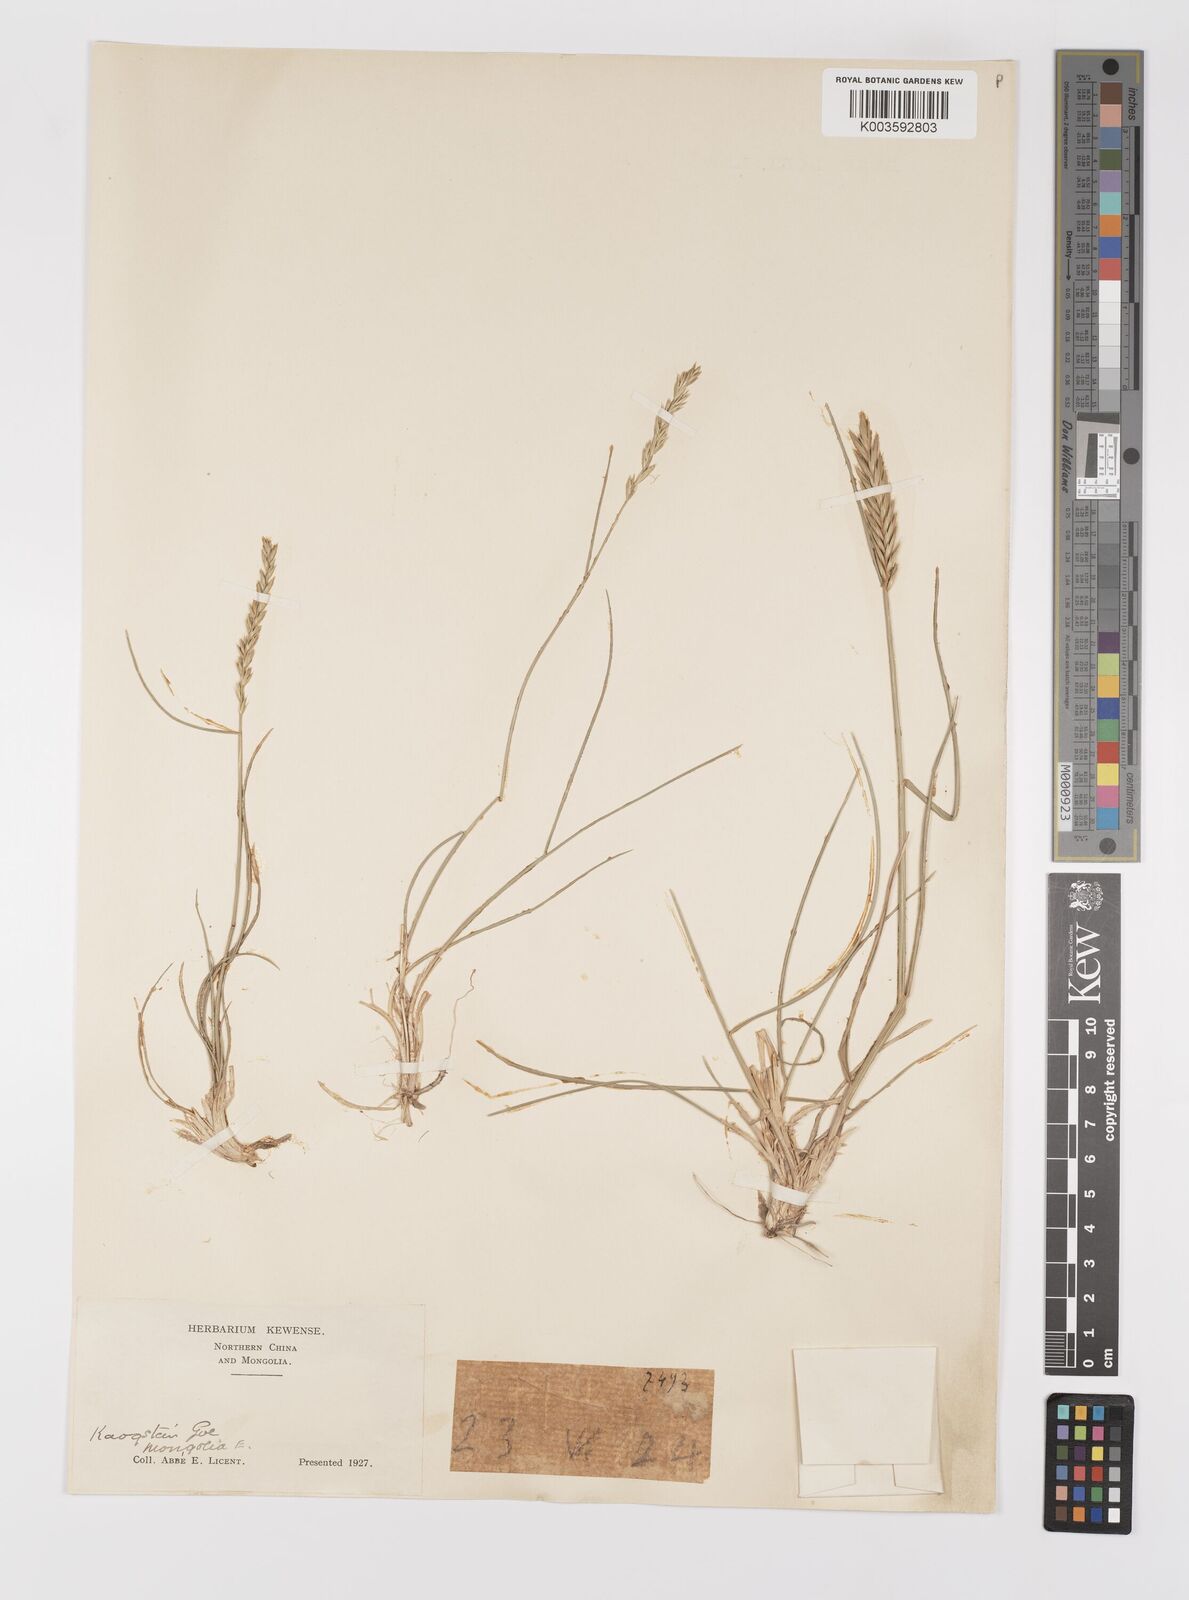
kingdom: Plantae
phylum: Tracheophyta
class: Liliopsida
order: Poales
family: Poaceae
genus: Agropyron
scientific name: Agropyron cristatum
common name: Crested wheatgrass
